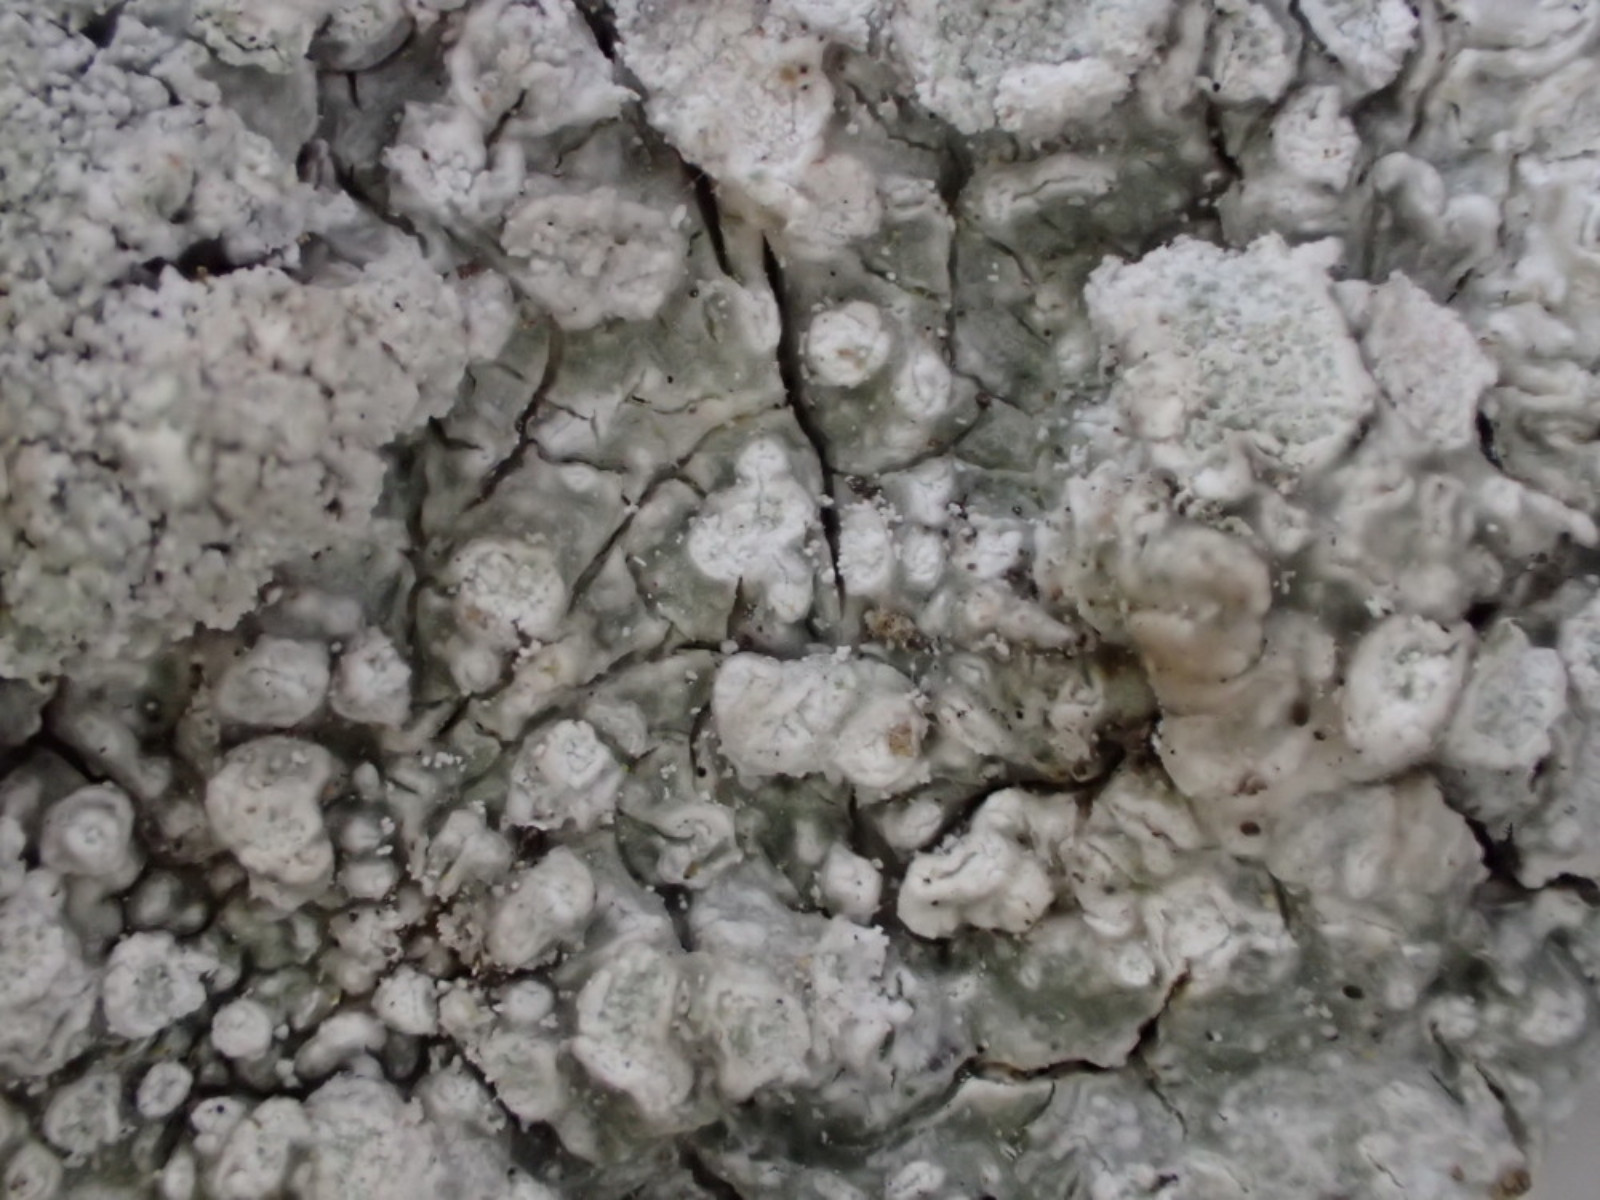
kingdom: Fungi
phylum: Ascomycota
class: Lecanoromycetes
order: Pertusariales
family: Pertusariaceae
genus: Lepra
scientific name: Lepra amara
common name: bitter prikvortelav
